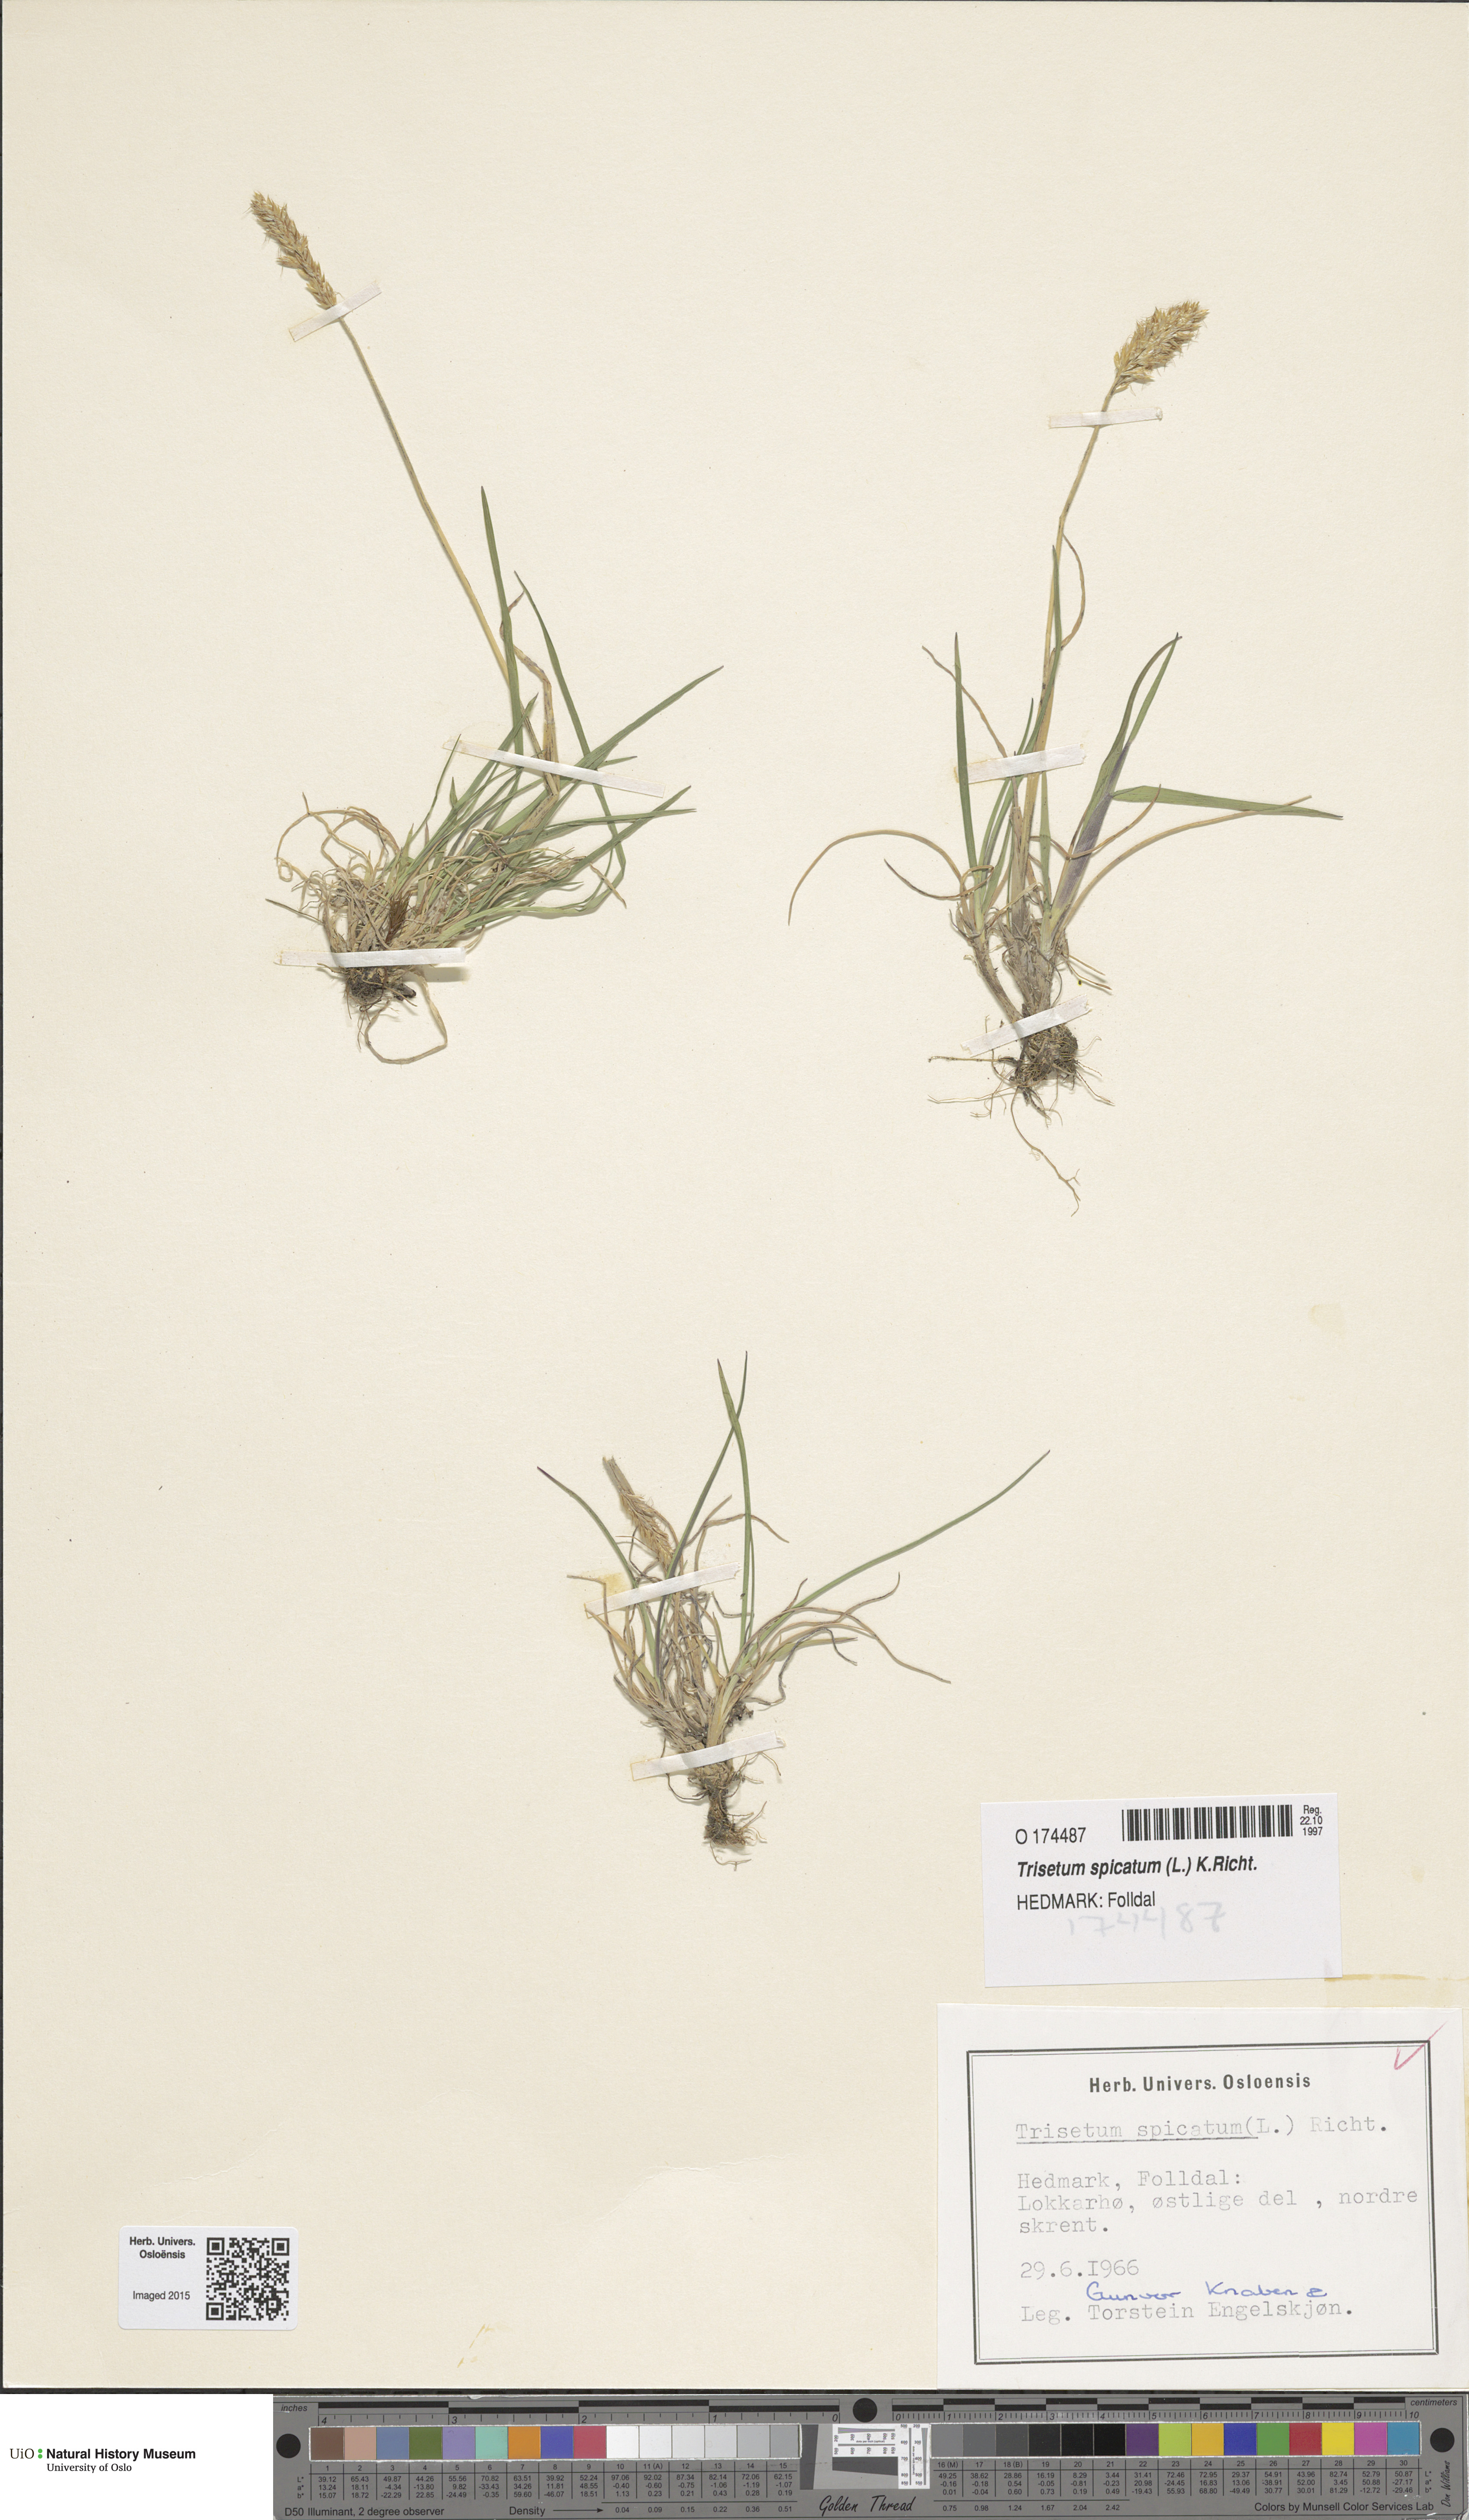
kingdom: Plantae
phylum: Tracheophyta
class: Liliopsida
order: Poales
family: Poaceae
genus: Koeleria
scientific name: Koeleria spicata
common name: Mountain trisetum
